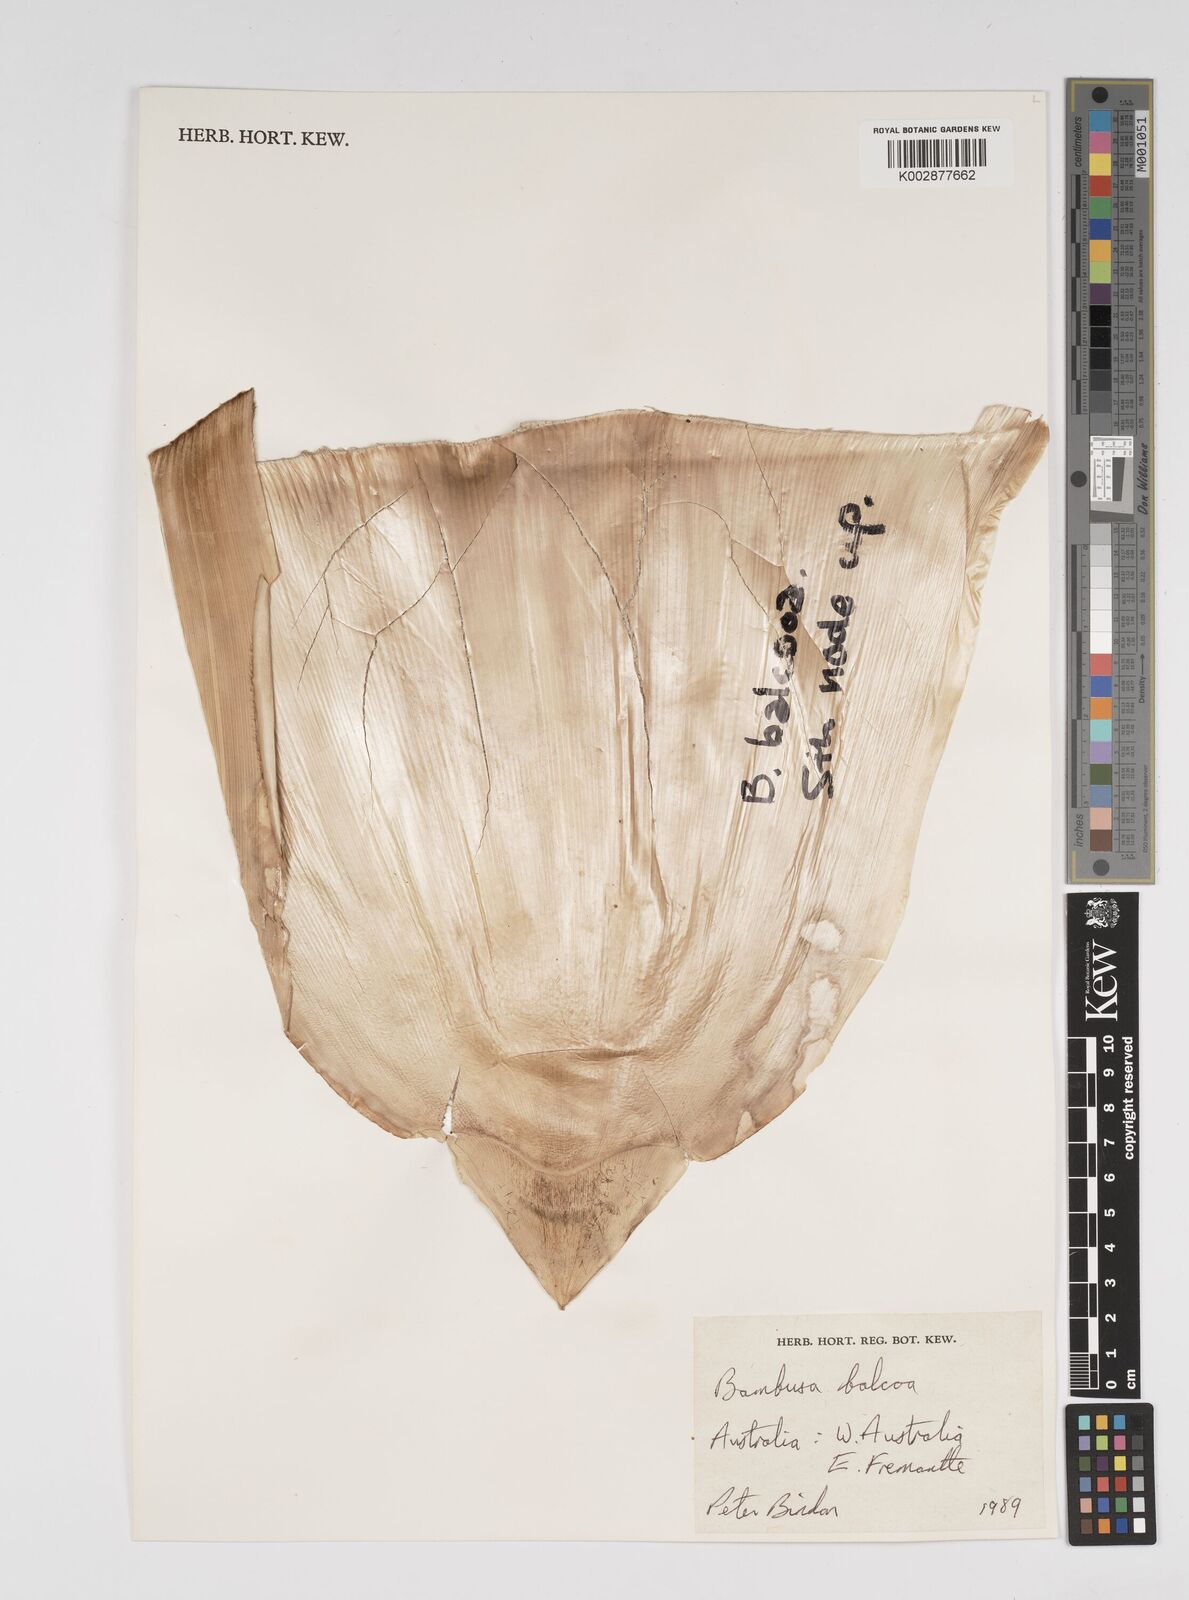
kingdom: Plantae
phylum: Tracheophyta
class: Liliopsida
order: Poales
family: Poaceae
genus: Bambusa
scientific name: Bambusa balcooa
